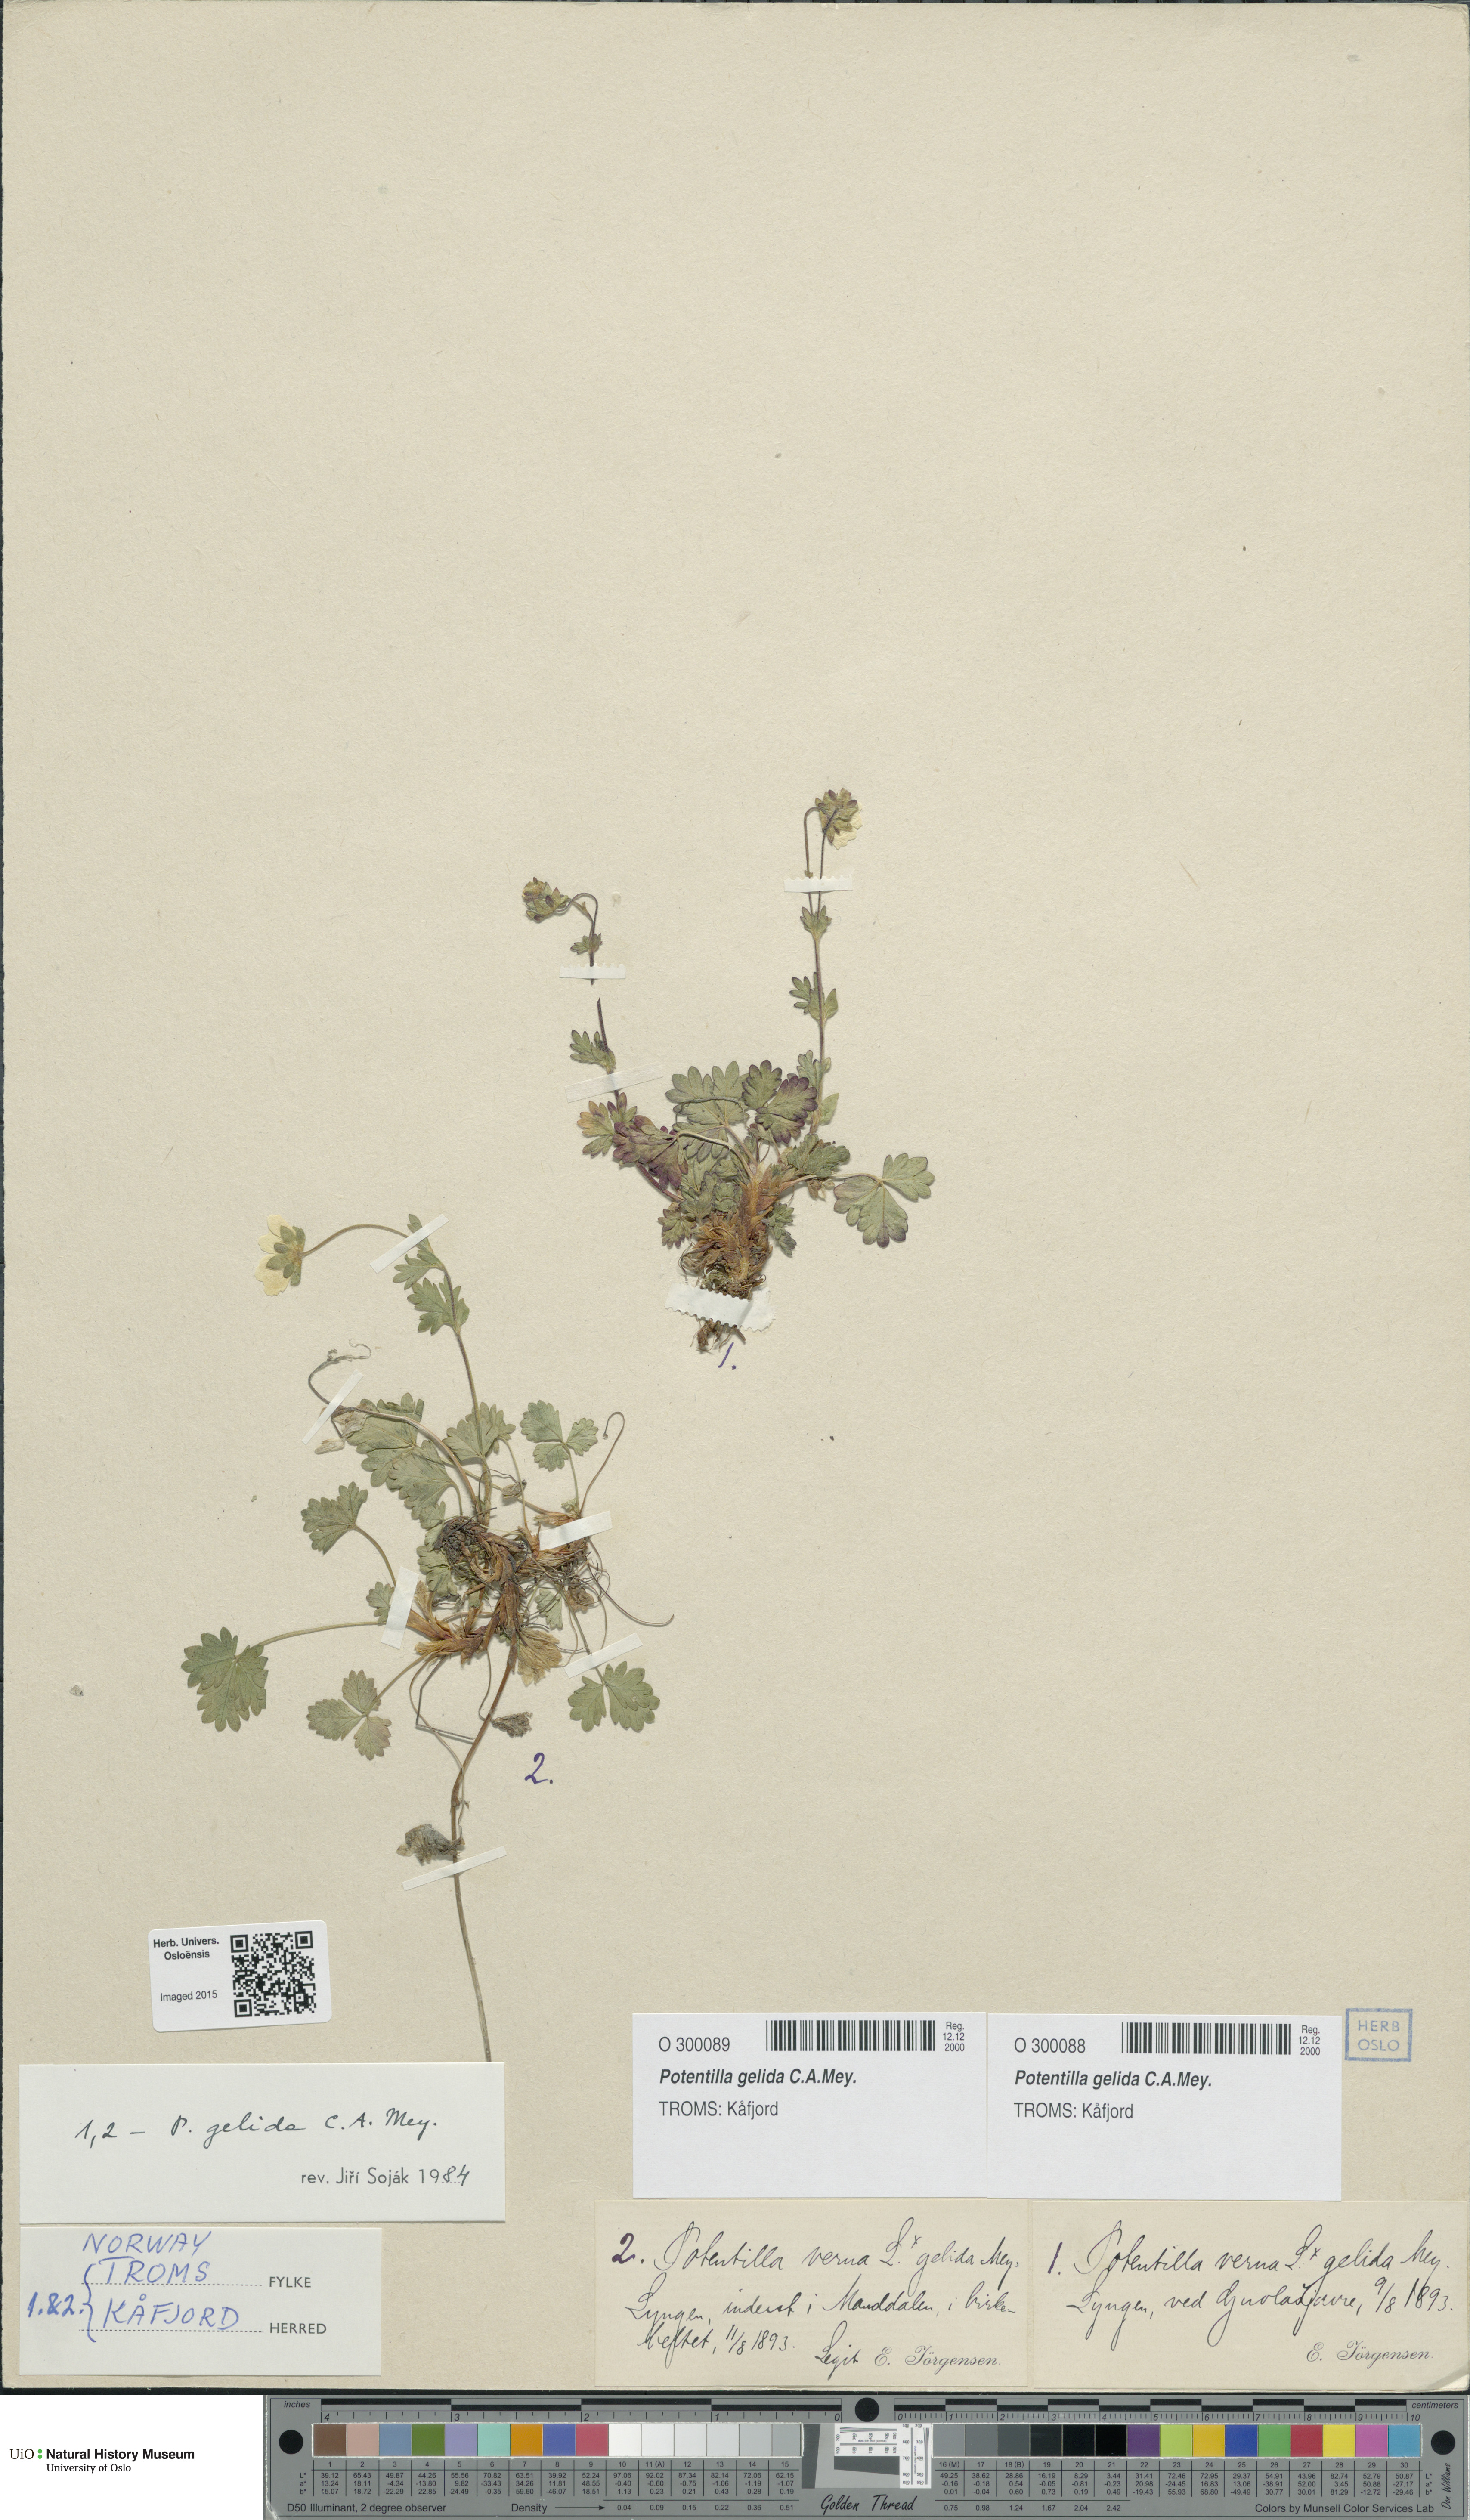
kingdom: Plantae
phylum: Tracheophyta
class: Magnoliopsida
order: Rosales
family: Rosaceae
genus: Potentilla
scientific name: Potentilla crantzii
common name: Alpine cinquefoil
